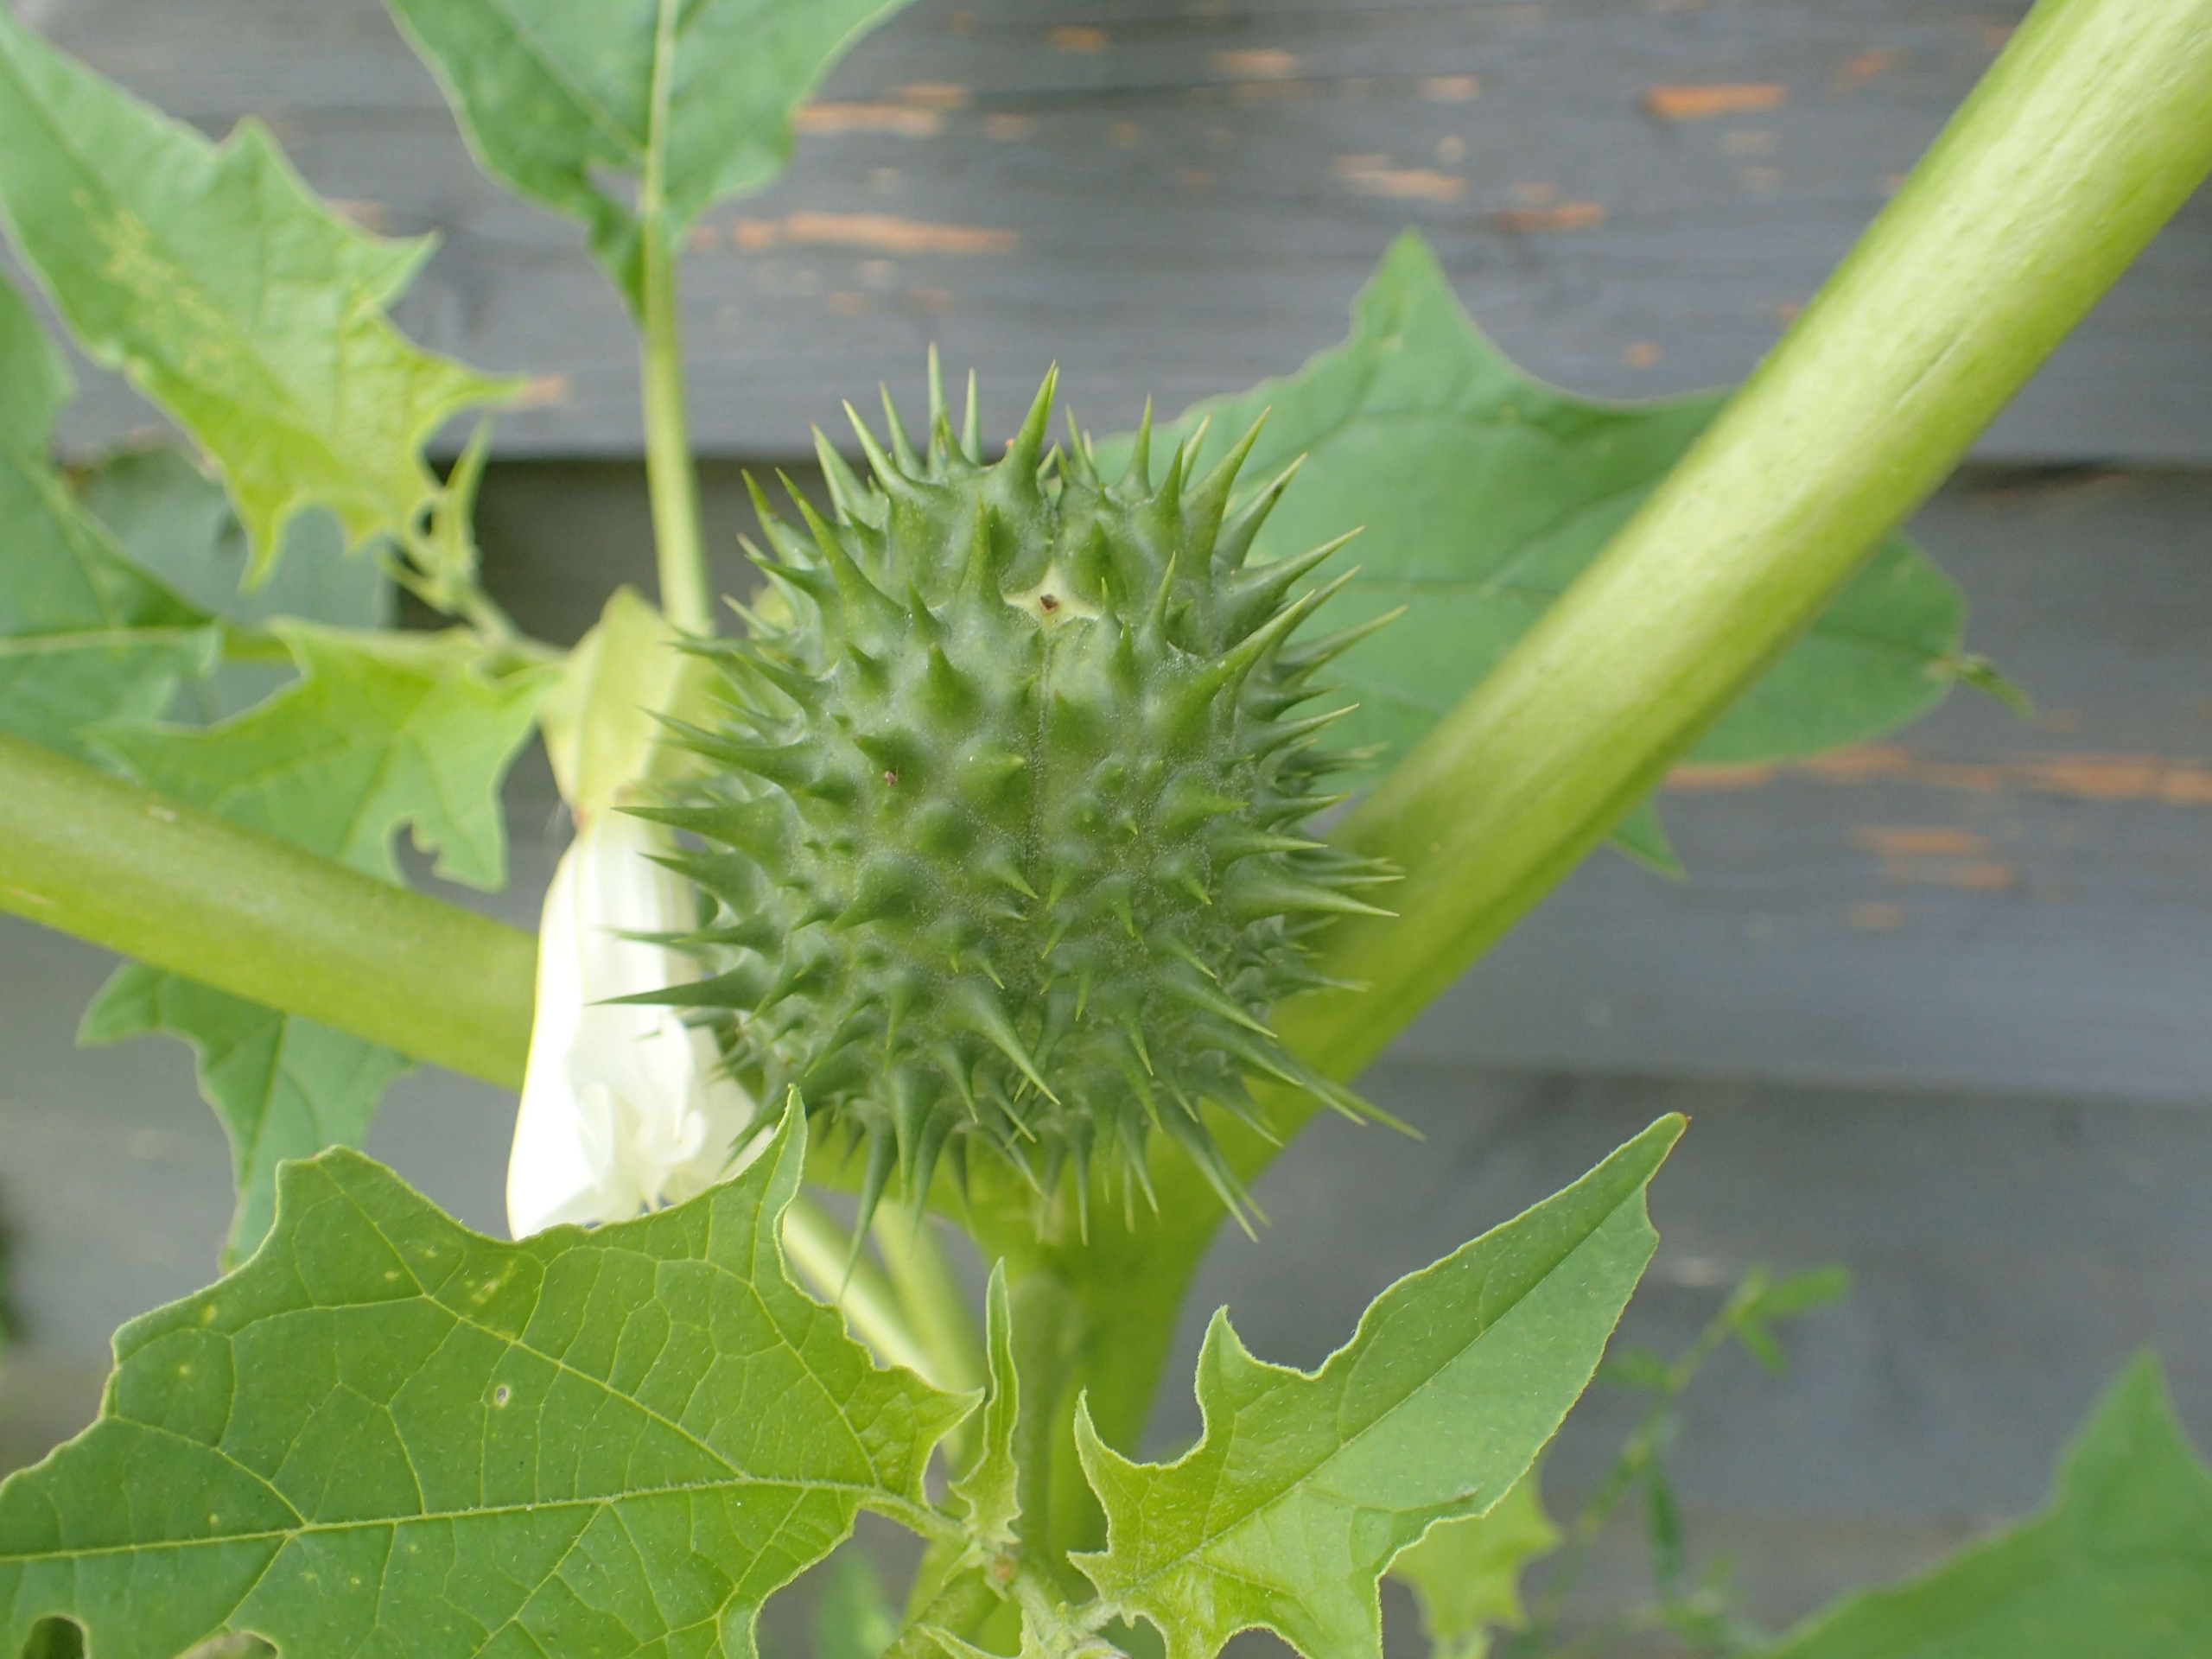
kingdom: Plantae
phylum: Tracheophyta
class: Magnoliopsida
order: Solanales
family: Solanaceae
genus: Datura
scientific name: Datura stramonium
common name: Pigæble
